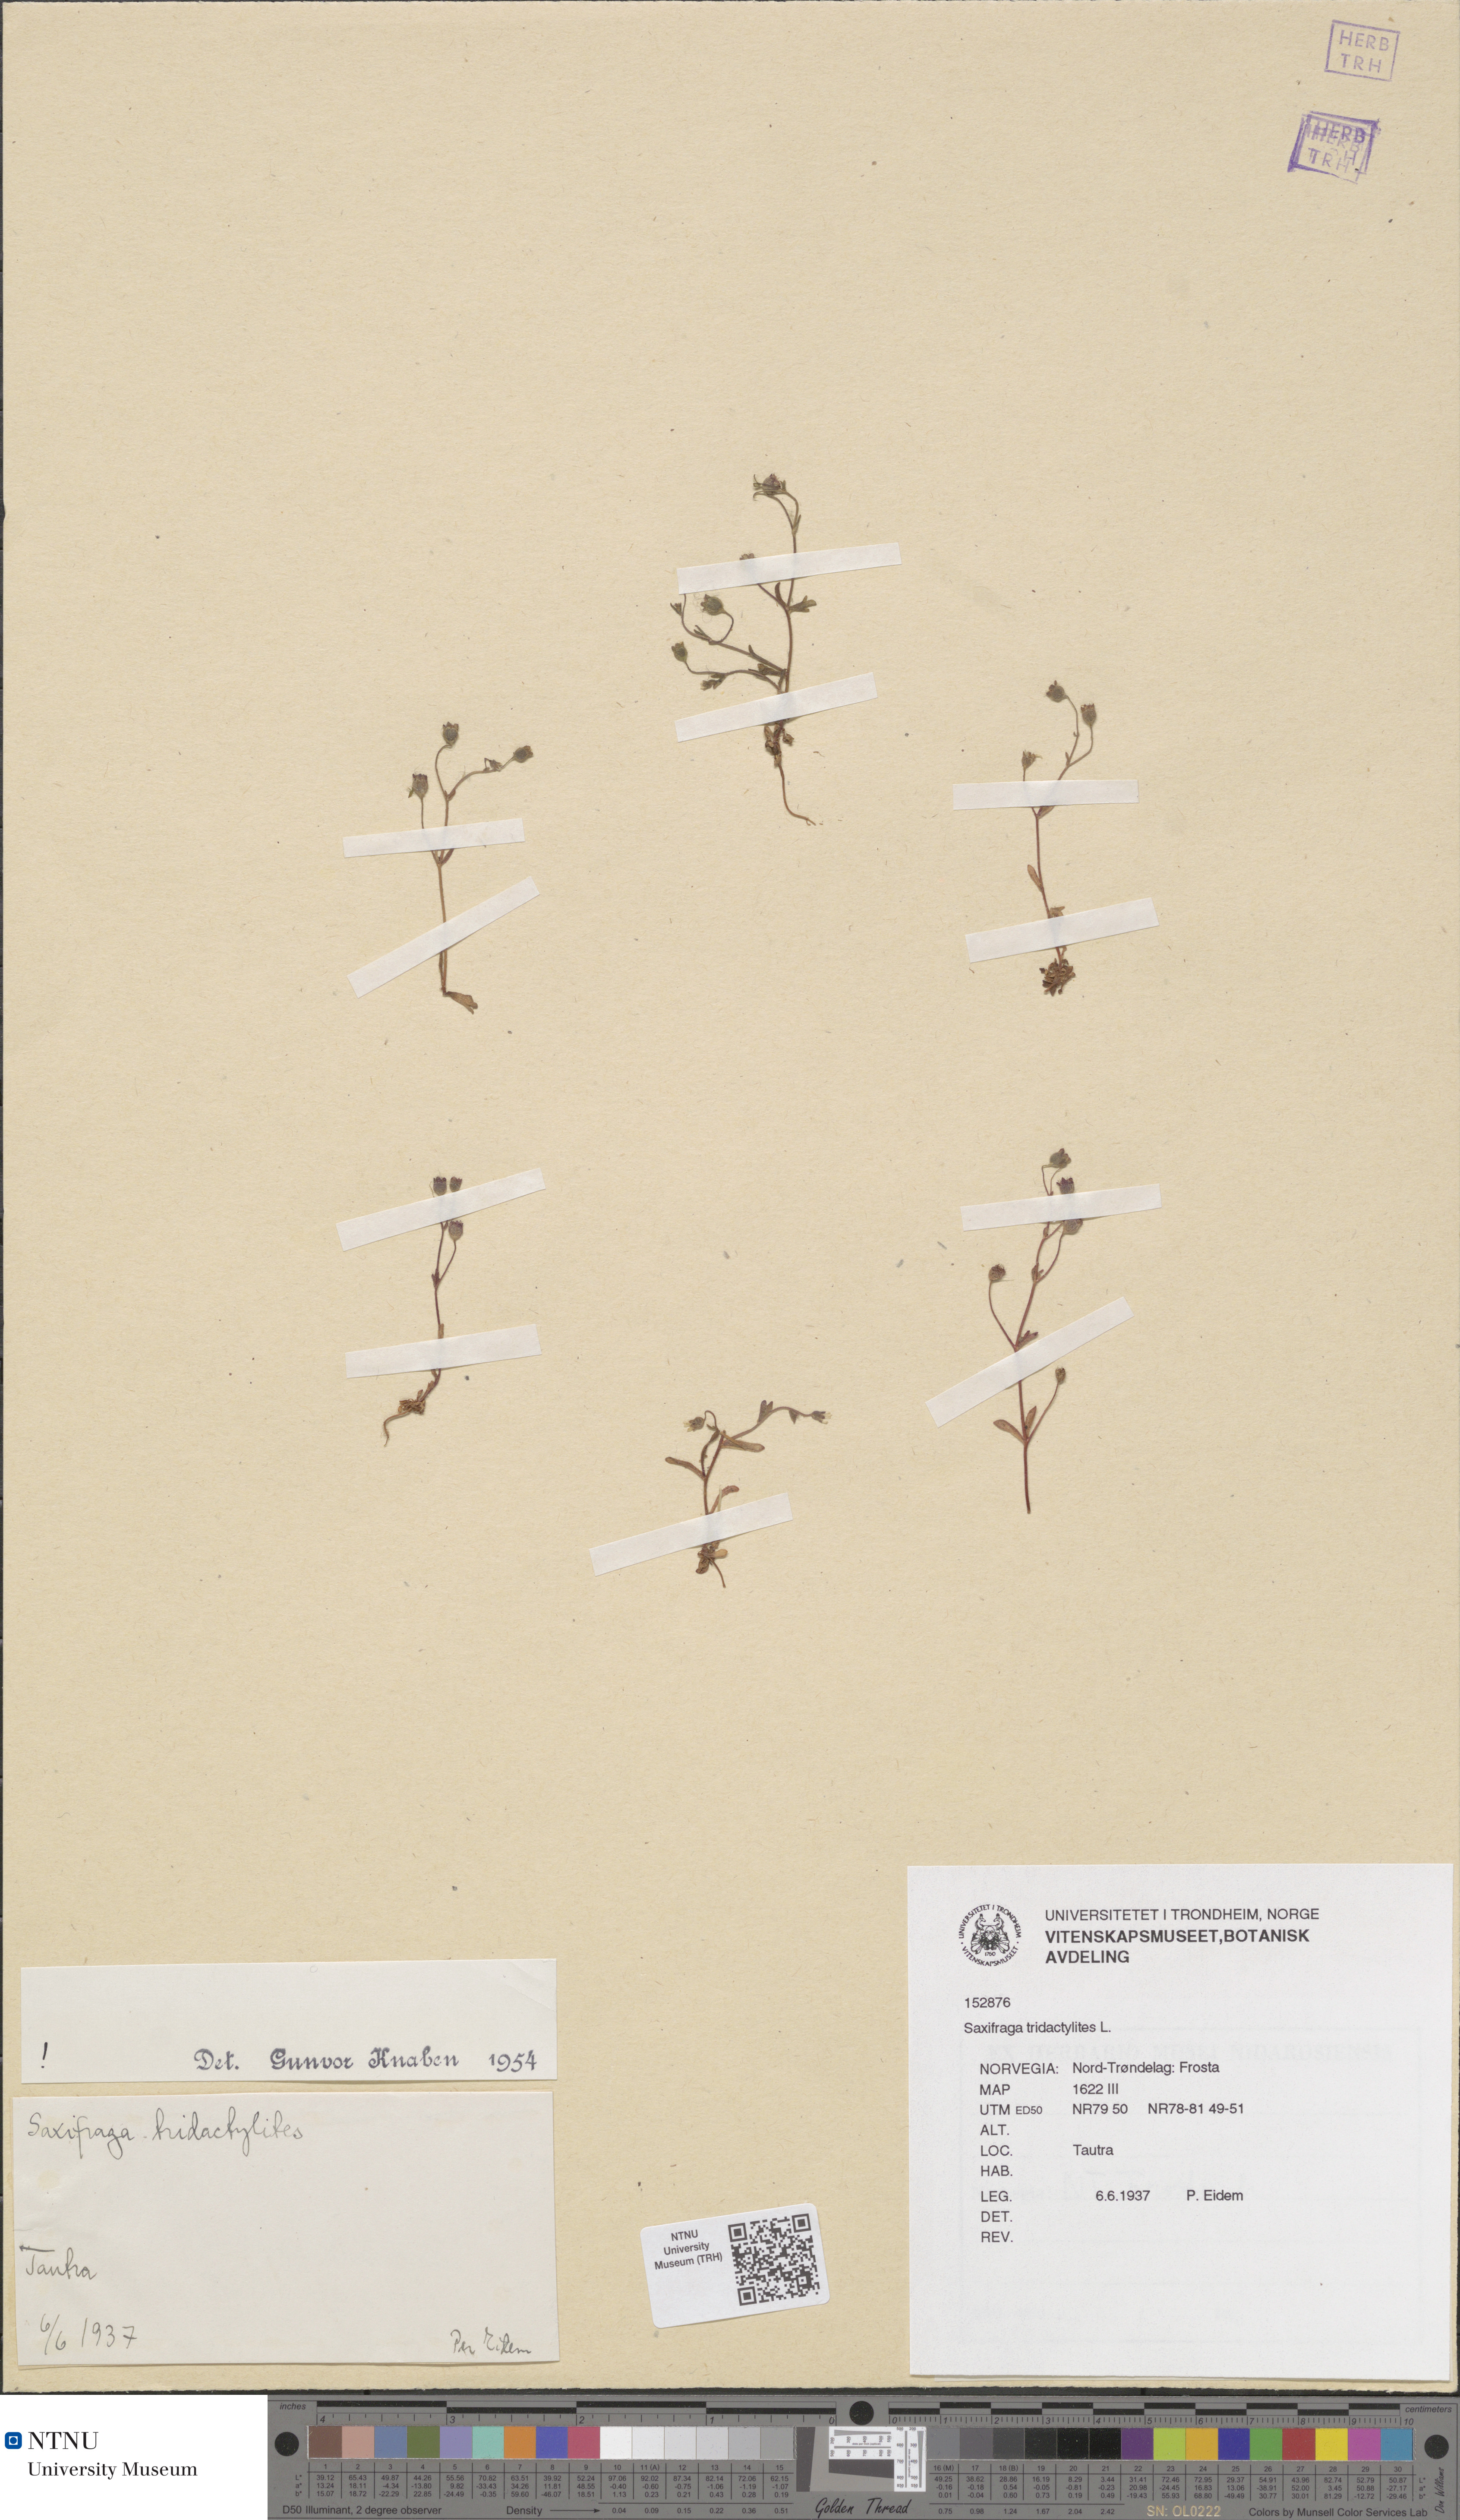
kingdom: Plantae
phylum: Tracheophyta
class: Magnoliopsida
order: Saxifragales
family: Saxifragaceae
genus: Saxifraga
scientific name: Saxifraga tridactylites
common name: Rue-leaved saxifrage
